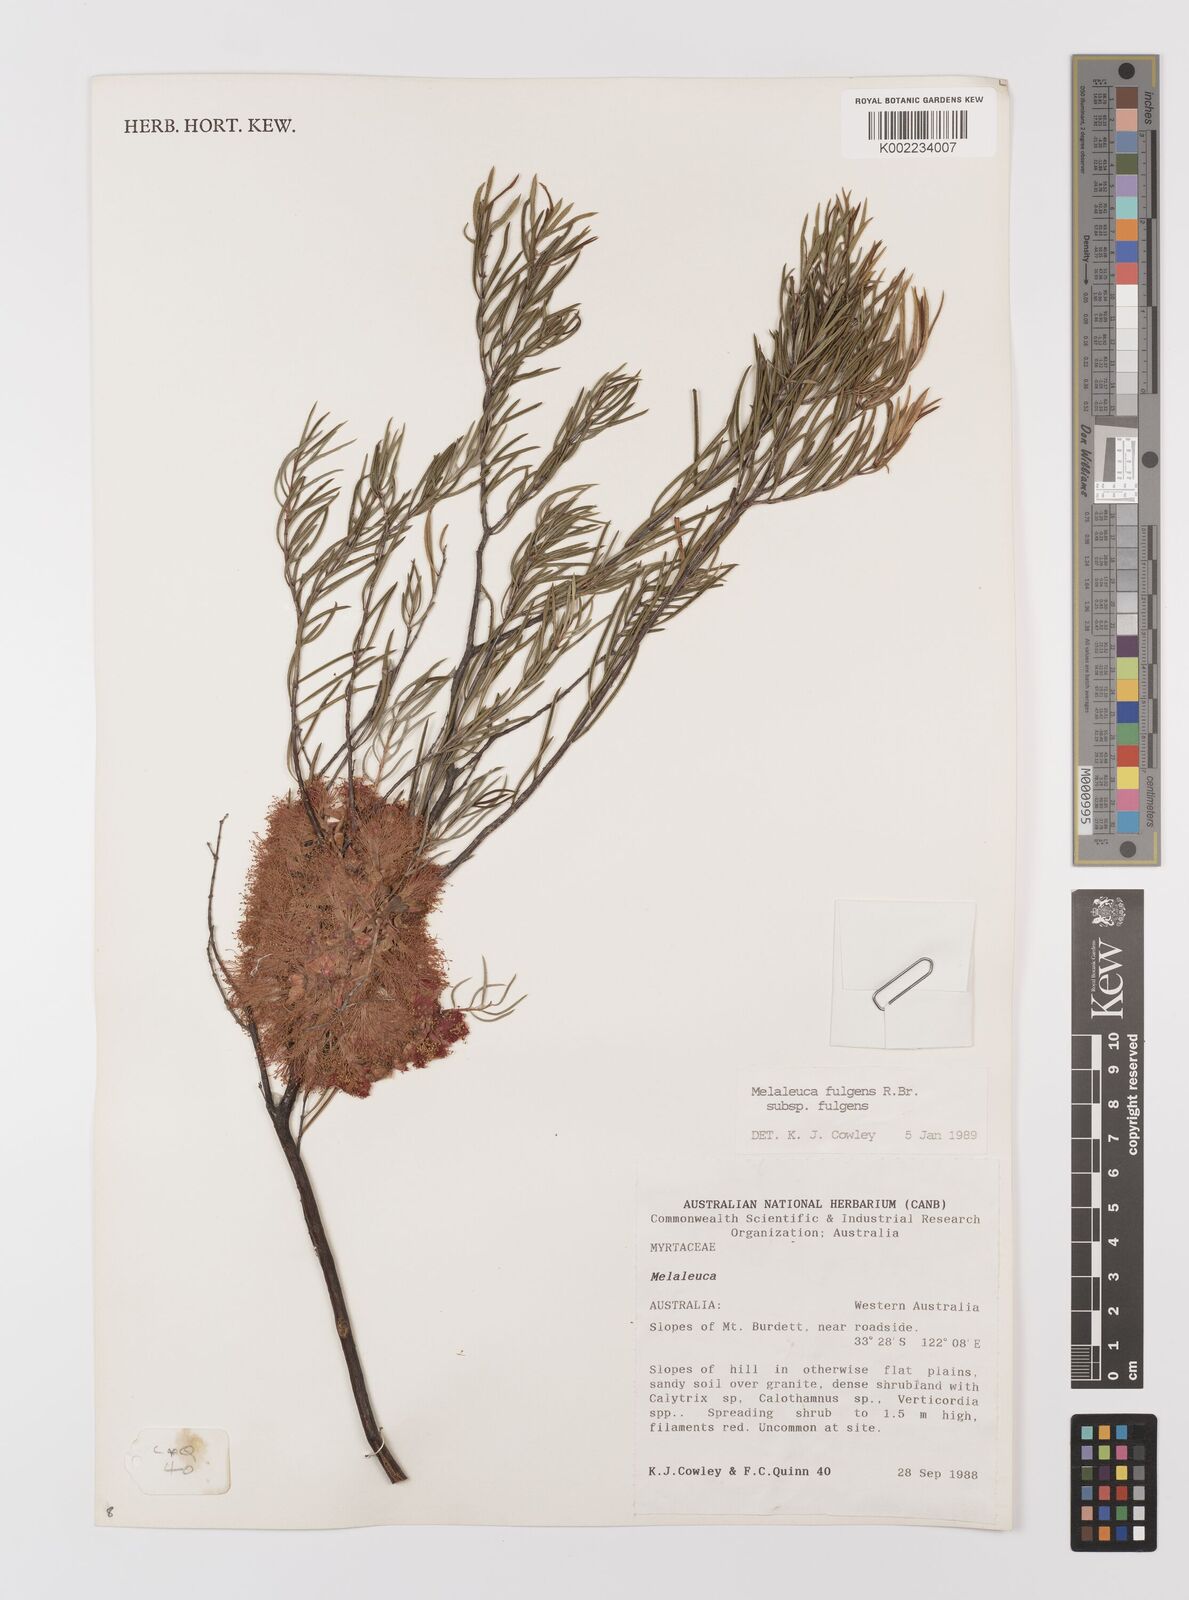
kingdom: Plantae
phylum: Tracheophyta
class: Magnoliopsida
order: Myrtales
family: Myrtaceae
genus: Melaleuca
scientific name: Melaleuca fulgens
